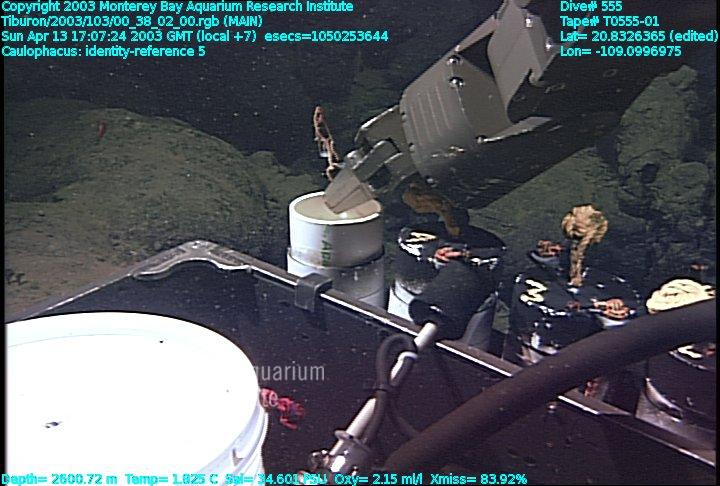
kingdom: Animalia
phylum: Porifera
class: Hexactinellida
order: Lyssacinosida
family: Rossellidae
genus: Caulophacus
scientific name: Caulophacus
